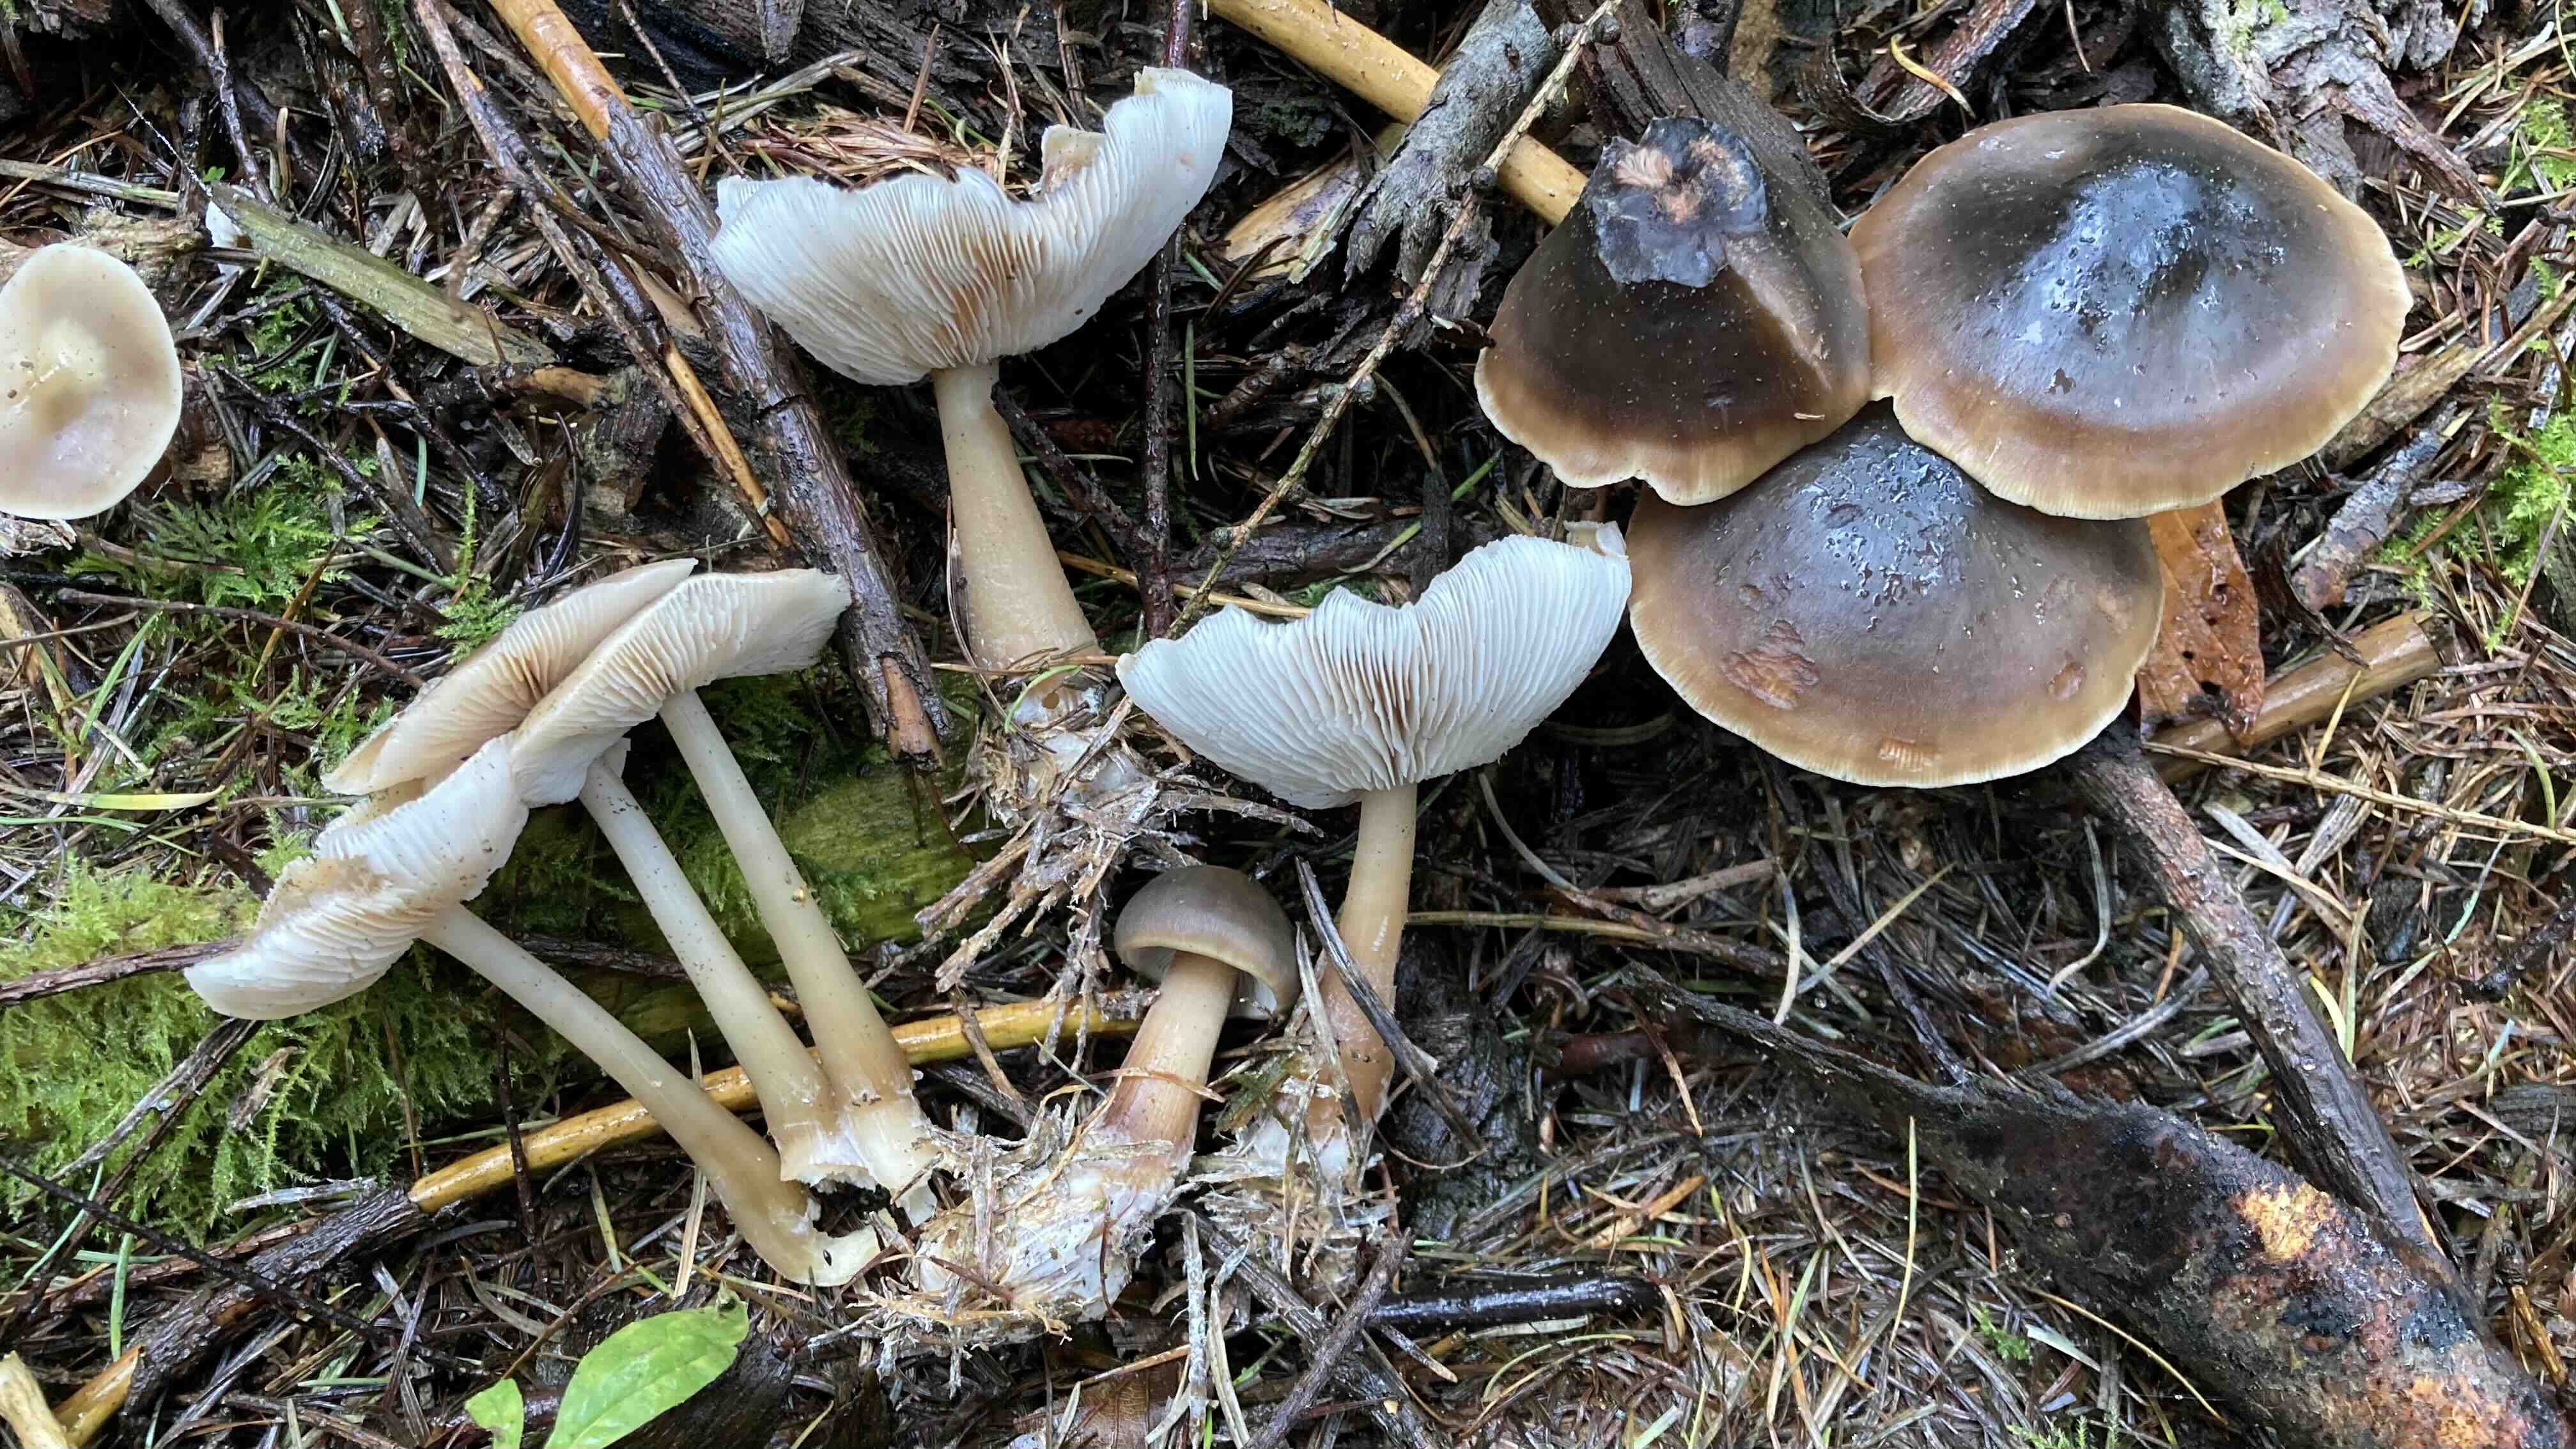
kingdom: Fungi
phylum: Basidiomycota
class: Agaricomycetes
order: Agaricales
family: Omphalotaceae
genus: Rhodocollybia
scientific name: Rhodocollybia
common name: fladhat
